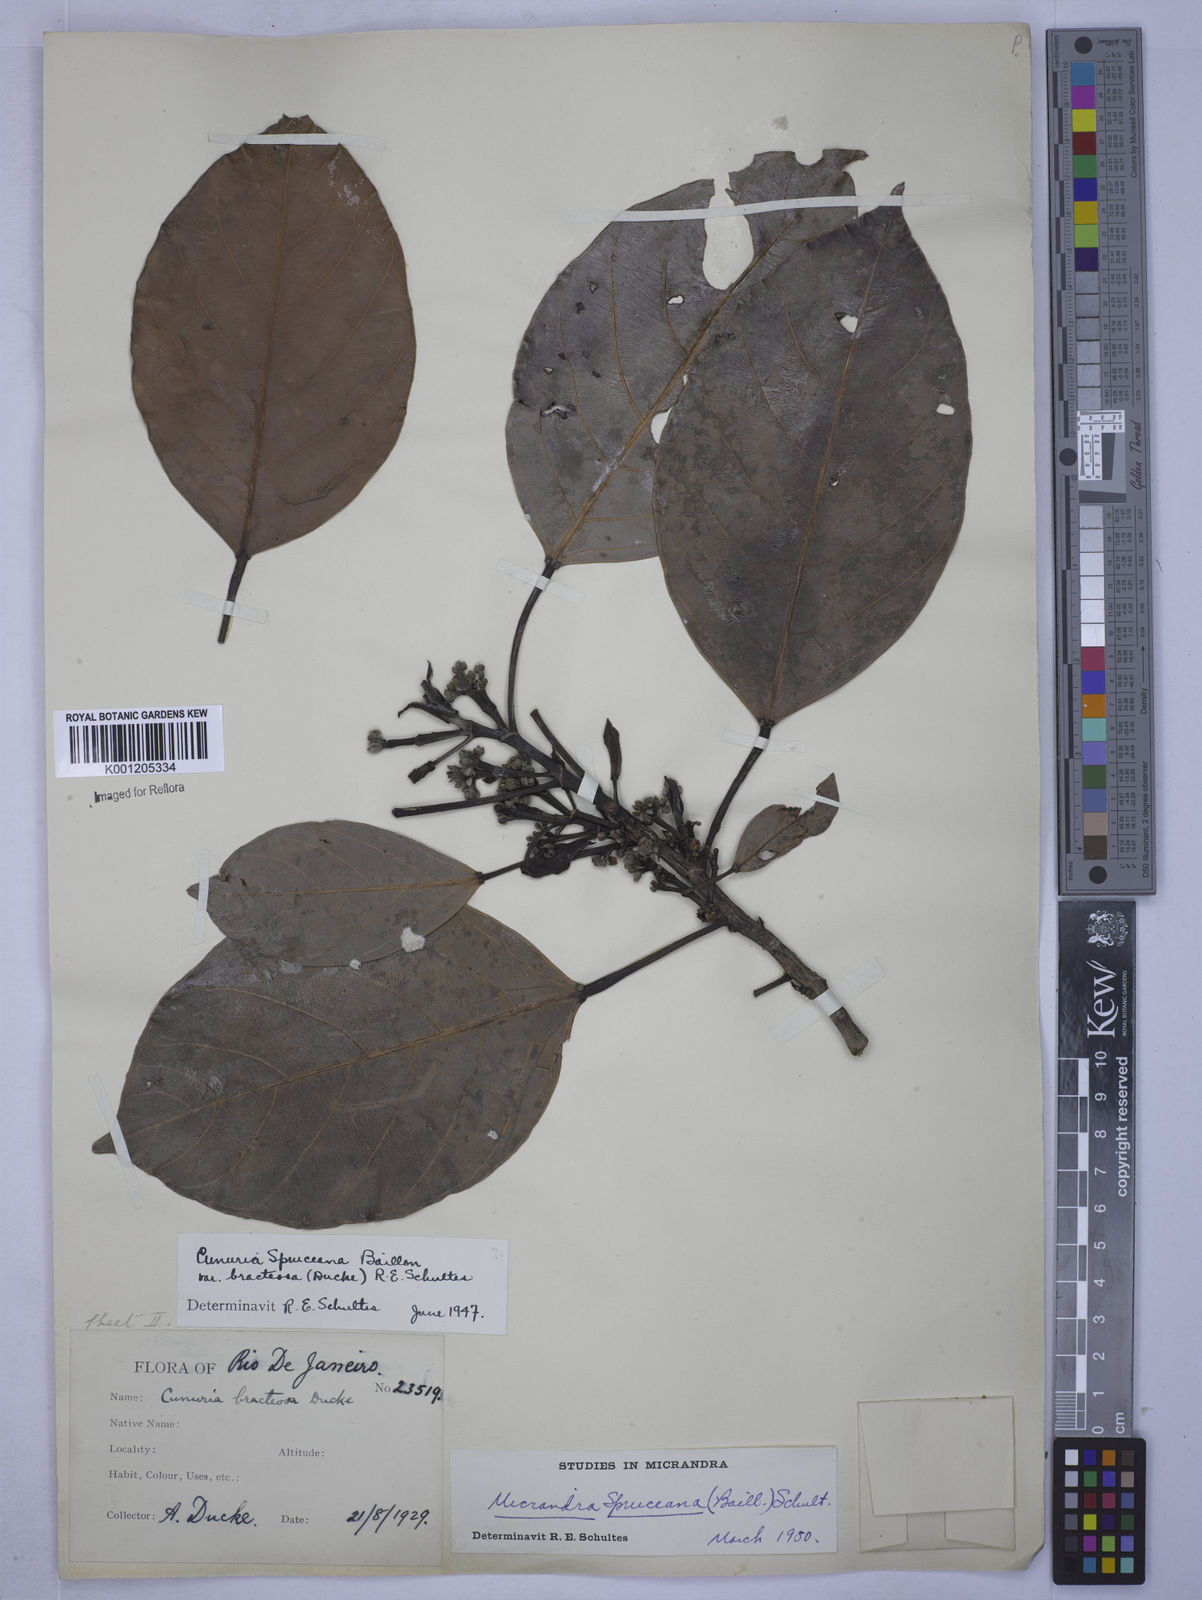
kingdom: Plantae
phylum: Tracheophyta
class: Magnoliopsida
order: Malpighiales
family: Euphorbiaceae
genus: Micrandra
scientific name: Micrandra spruceana
